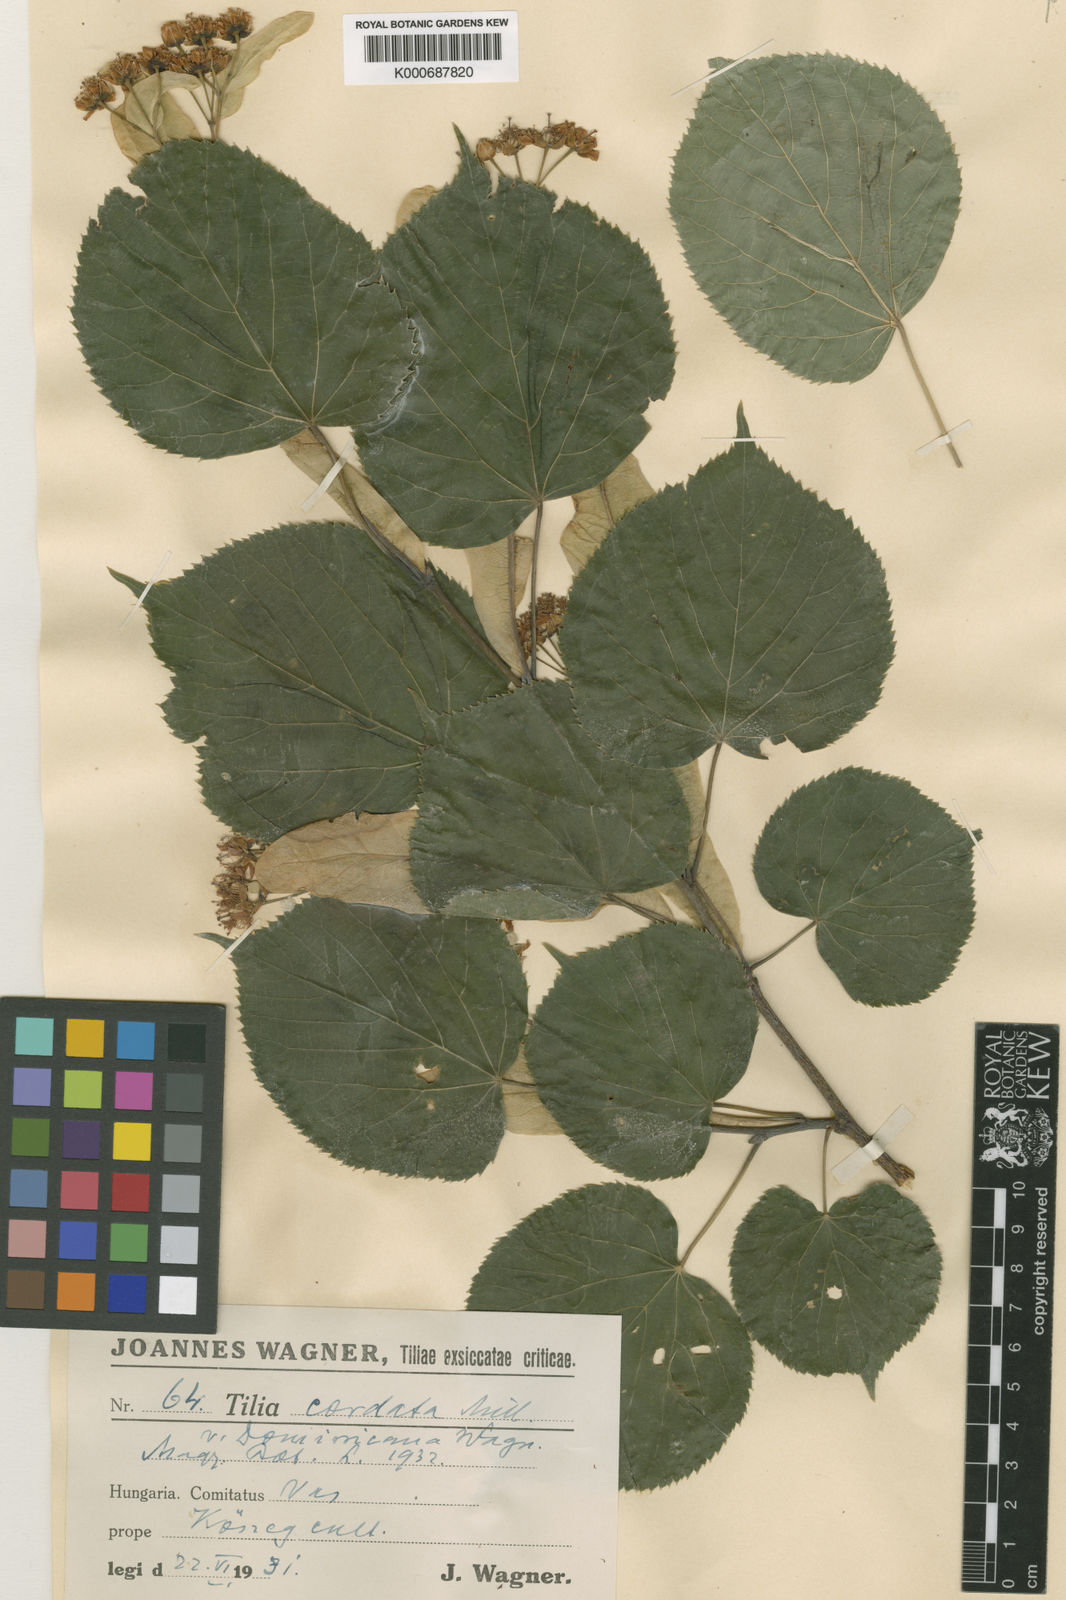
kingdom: Plantae
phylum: Tracheophyta
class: Magnoliopsida
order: Malvales
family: Malvaceae
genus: Tilia
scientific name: Tilia cordata
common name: Small-leaved lime
